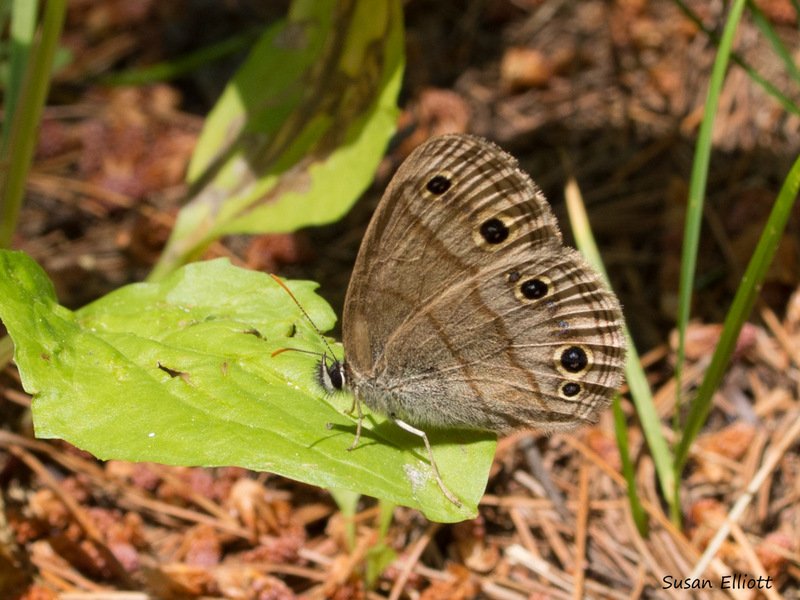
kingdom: Animalia
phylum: Arthropoda
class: Insecta
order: Lepidoptera
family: Nymphalidae
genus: Euptychia
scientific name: Euptychia cymela
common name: Little Wood Satyr
